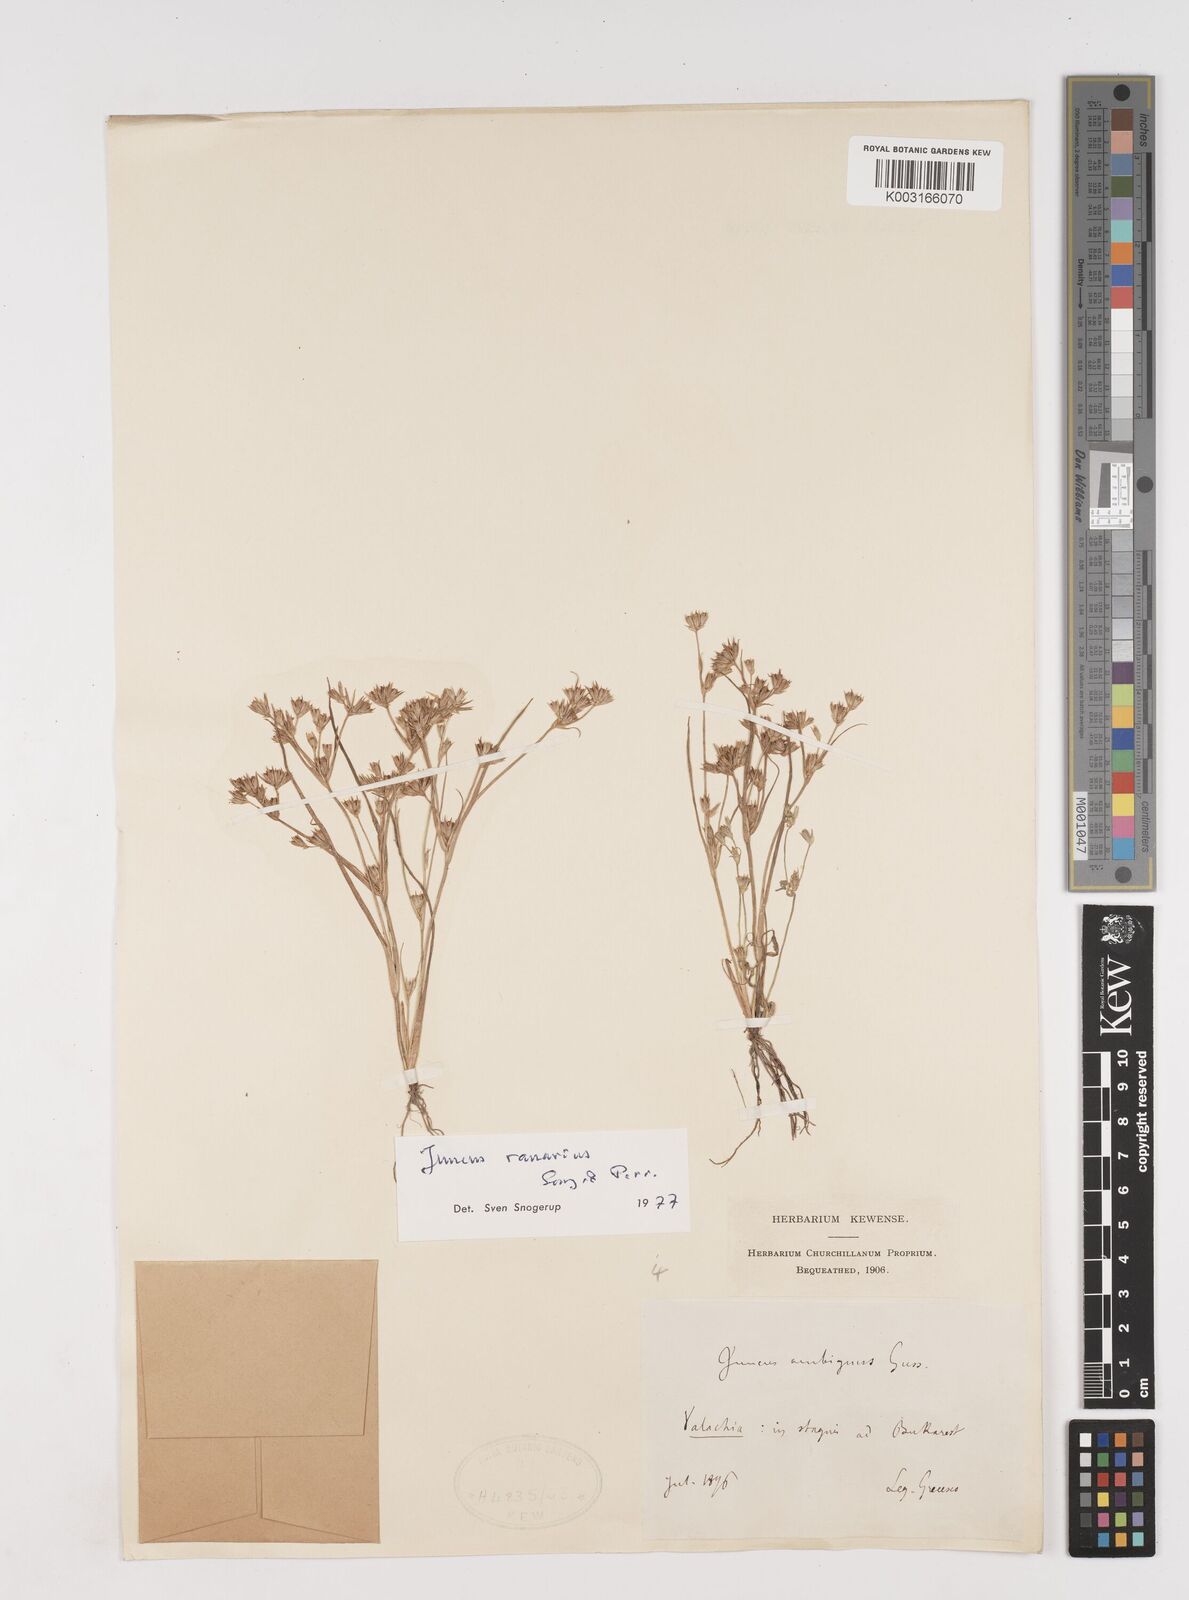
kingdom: Plantae
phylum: Tracheophyta
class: Liliopsida
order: Poales
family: Juncaceae
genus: Juncus
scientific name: Juncus hybridus
